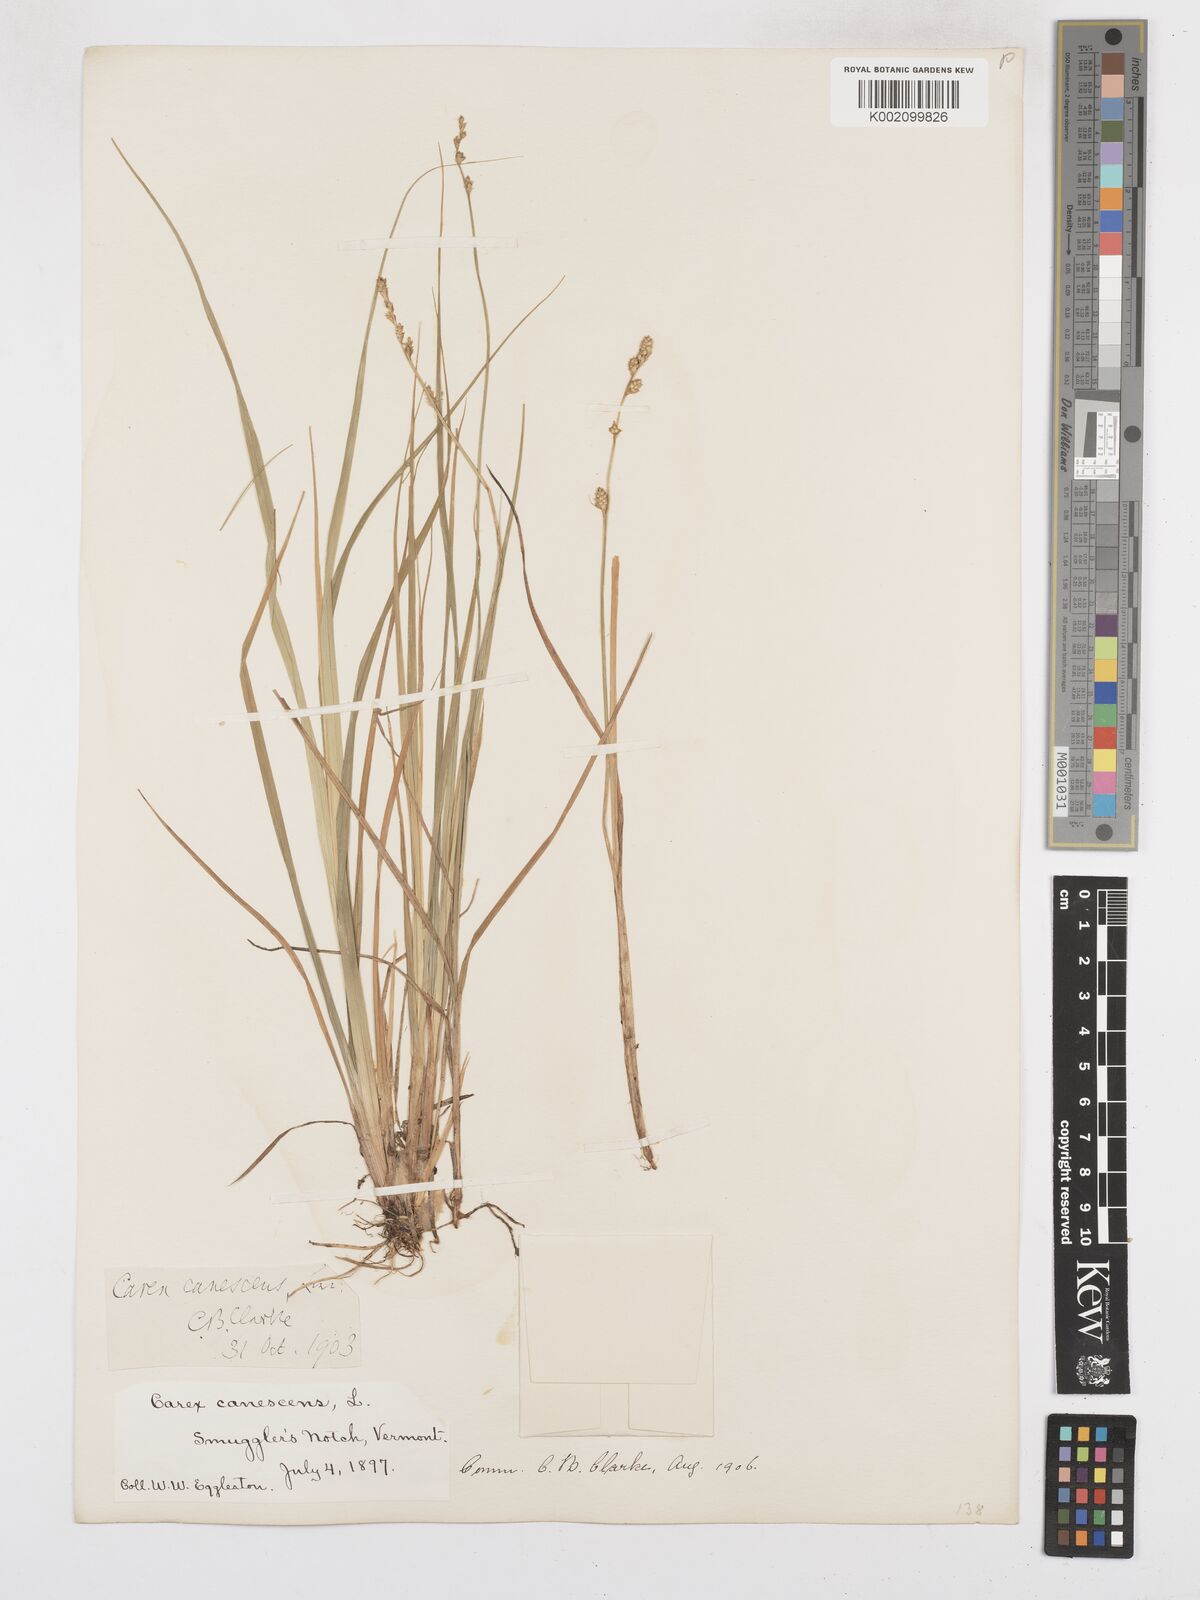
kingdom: Plantae
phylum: Tracheophyta
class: Liliopsida
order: Poales
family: Cyperaceae
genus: Carex
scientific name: Carex curta
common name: White sedge
